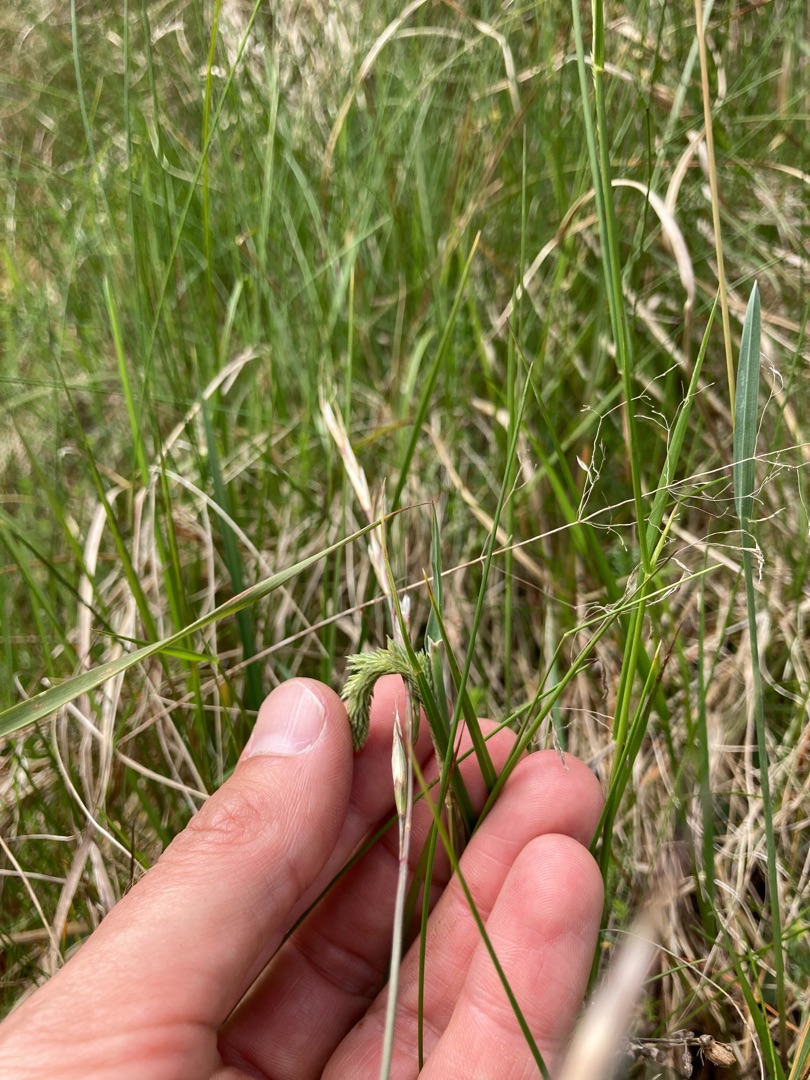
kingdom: Plantae
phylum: Tracheophyta
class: Liliopsida
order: Poales
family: Poaceae
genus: Phleum
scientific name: Phleum phleoides
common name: Glat rottehale
